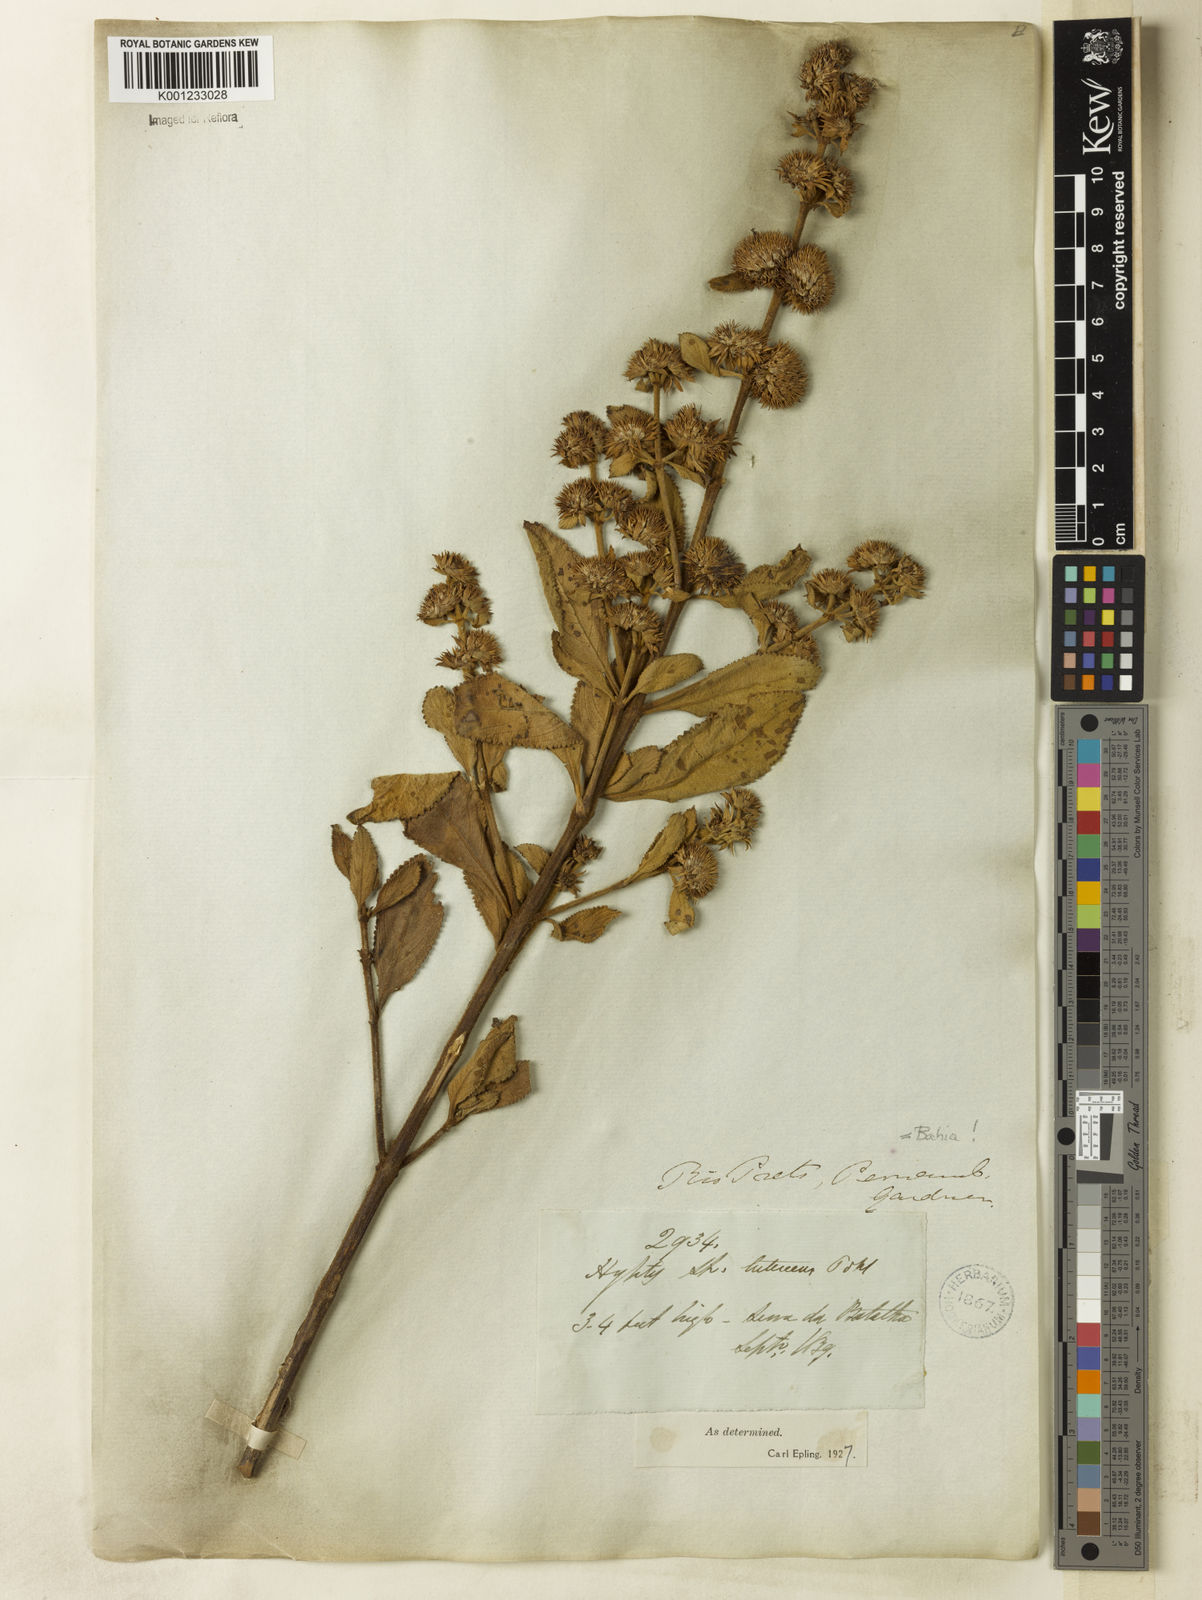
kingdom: Plantae
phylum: Tracheophyta
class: Magnoliopsida
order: Lamiales
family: Lamiaceae
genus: Hyptis
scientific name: Hyptis lutescens
